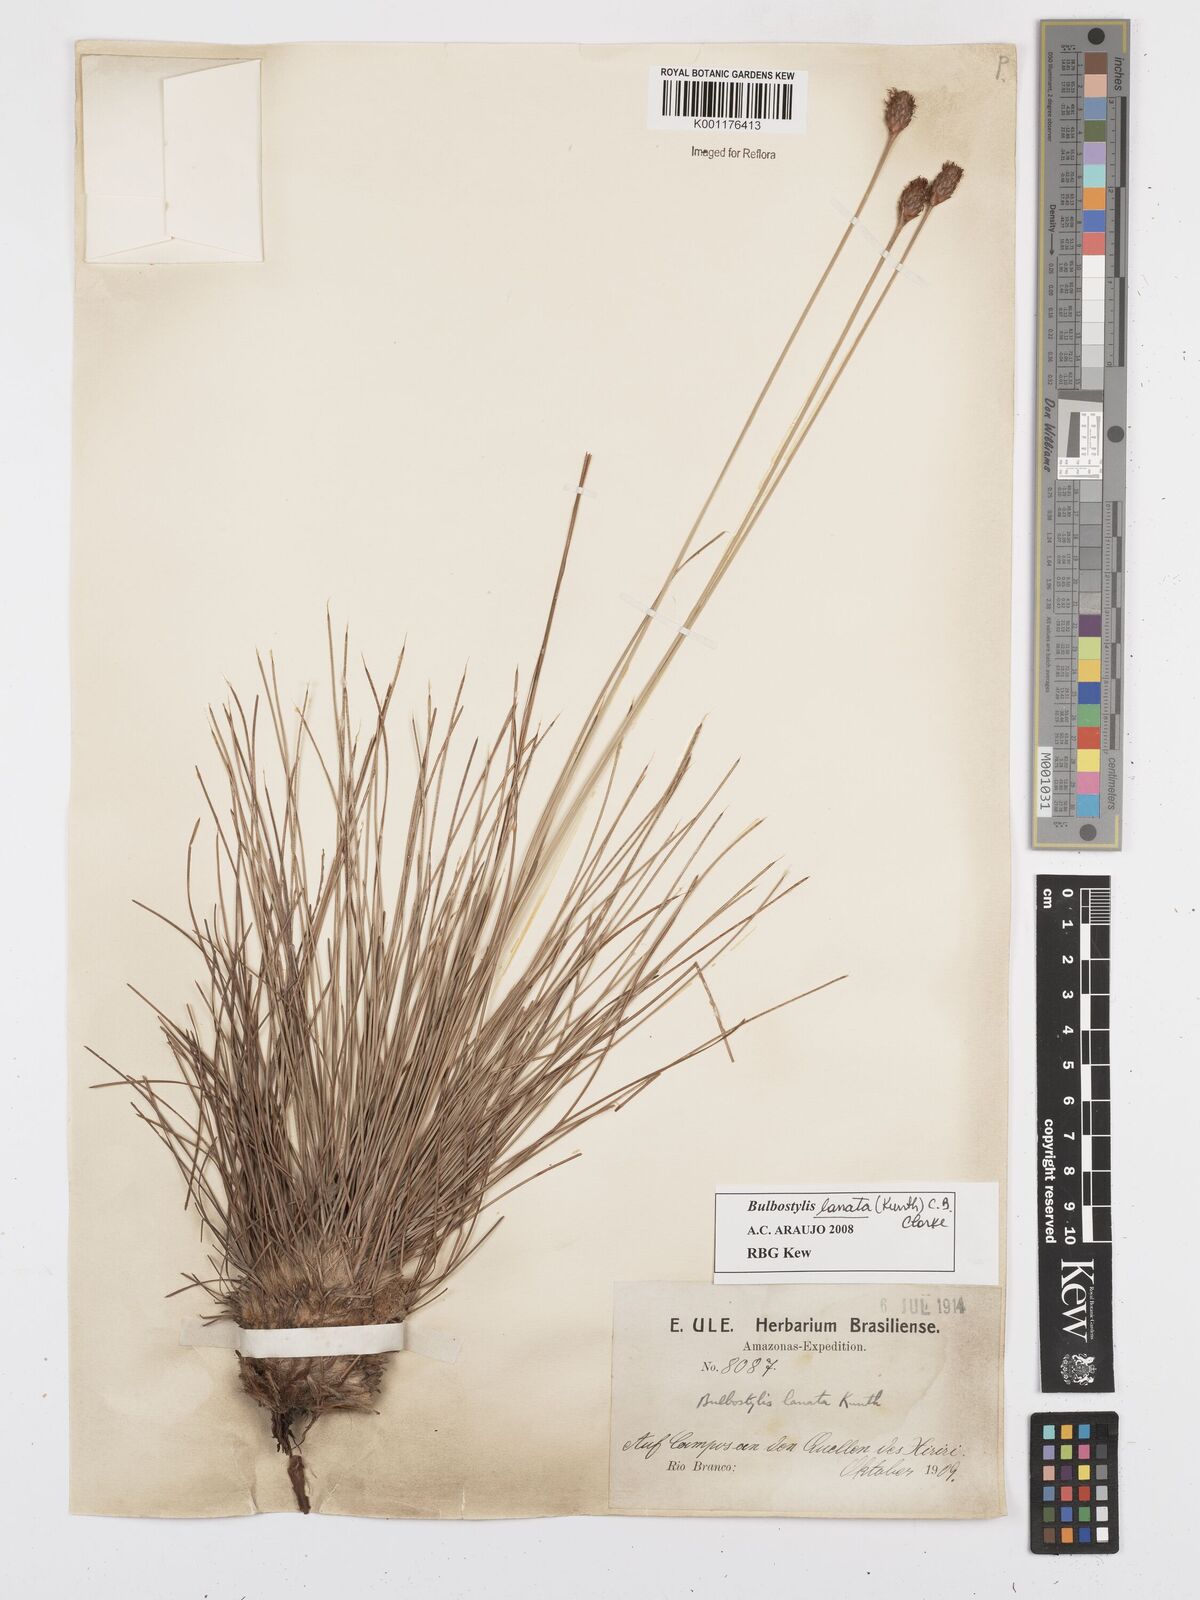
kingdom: Plantae
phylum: Tracheophyta
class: Liliopsida
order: Poales
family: Cyperaceae
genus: Bulbostylis
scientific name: Bulbostylis lanata
